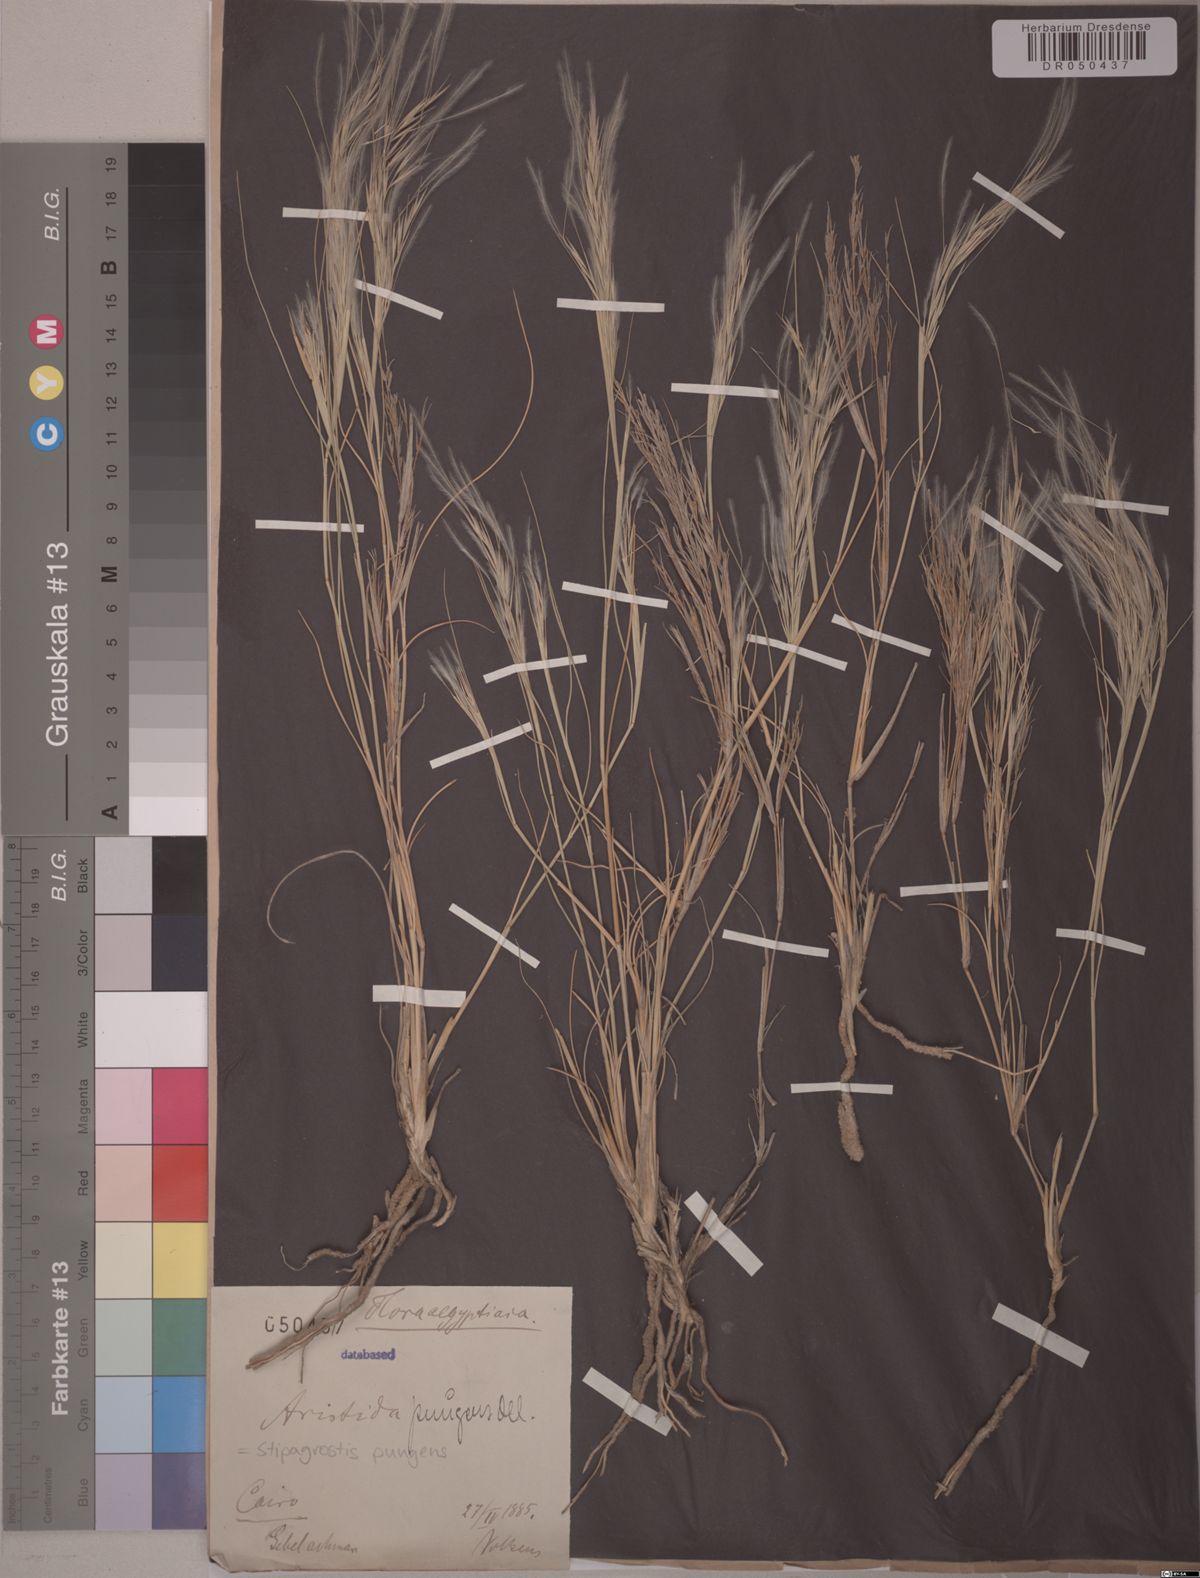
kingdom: Plantae
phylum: Tracheophyta
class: Liliopsida
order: Poales
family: Poaceae
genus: Stipagrostis
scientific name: Stipagrostis pungens
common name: Three-awn grass
